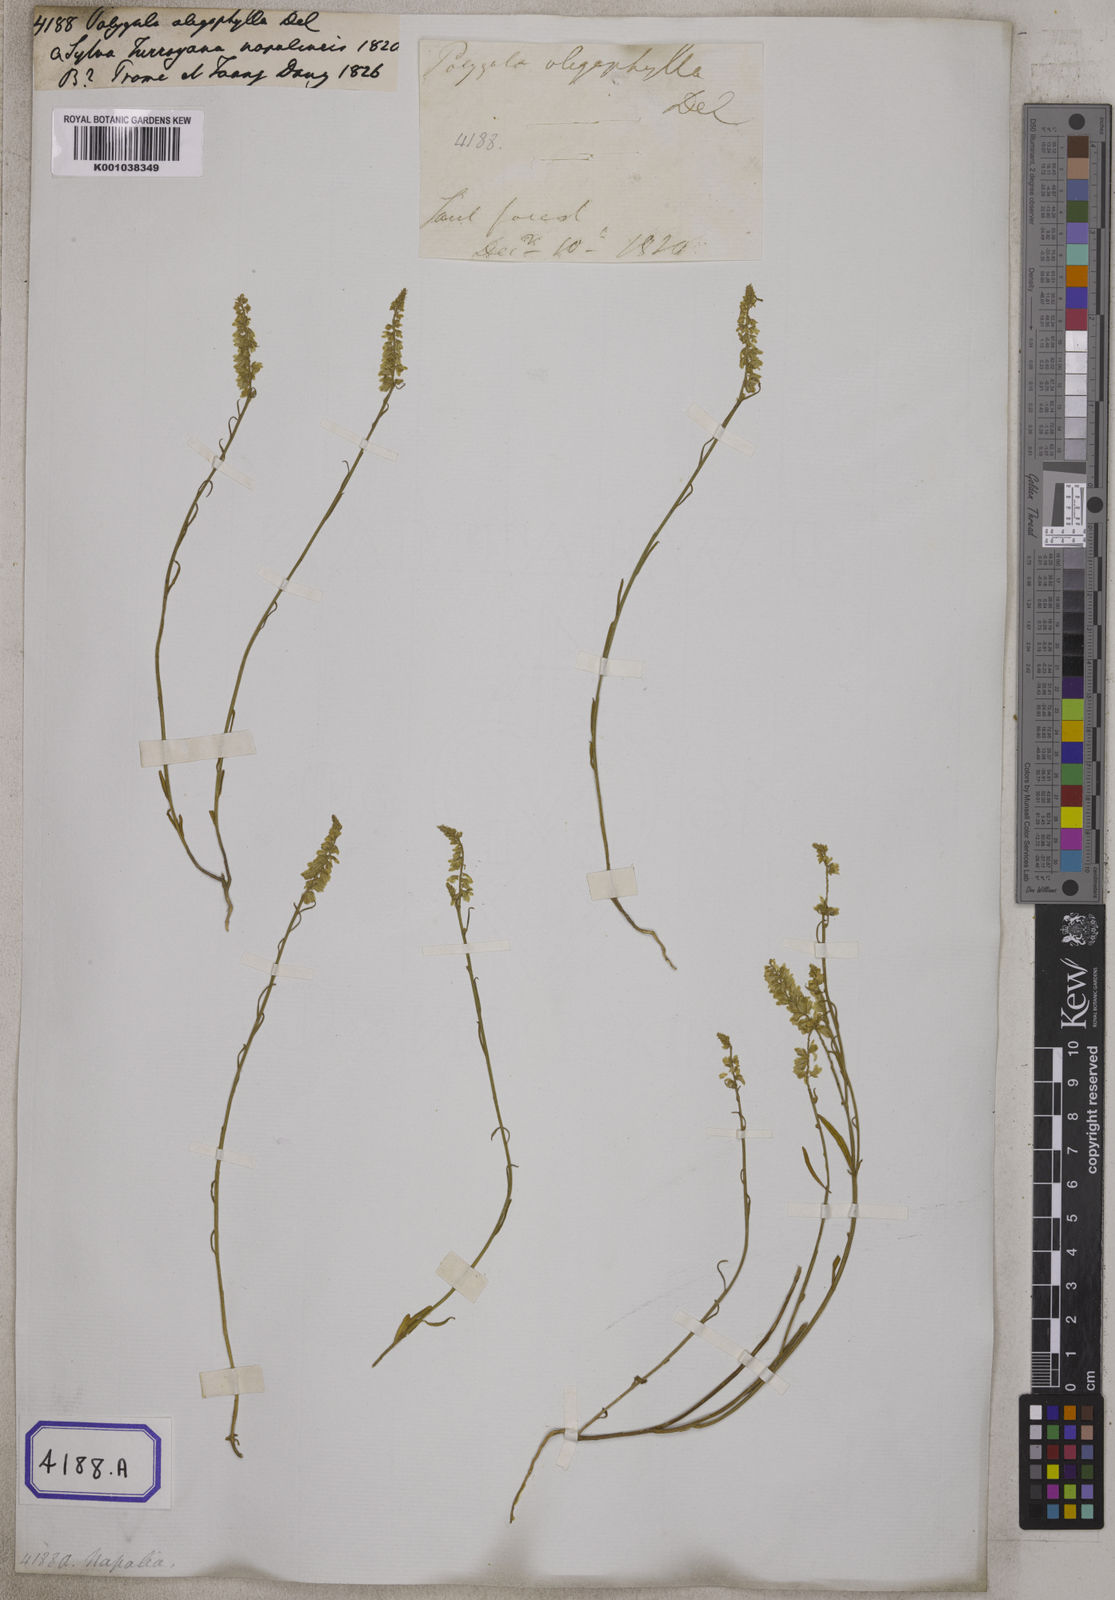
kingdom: Plantae
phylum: Tracheophyta
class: Magnoliopsida
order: Fabales
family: Polygalaceae
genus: Polygala
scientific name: Polygala longifolia
